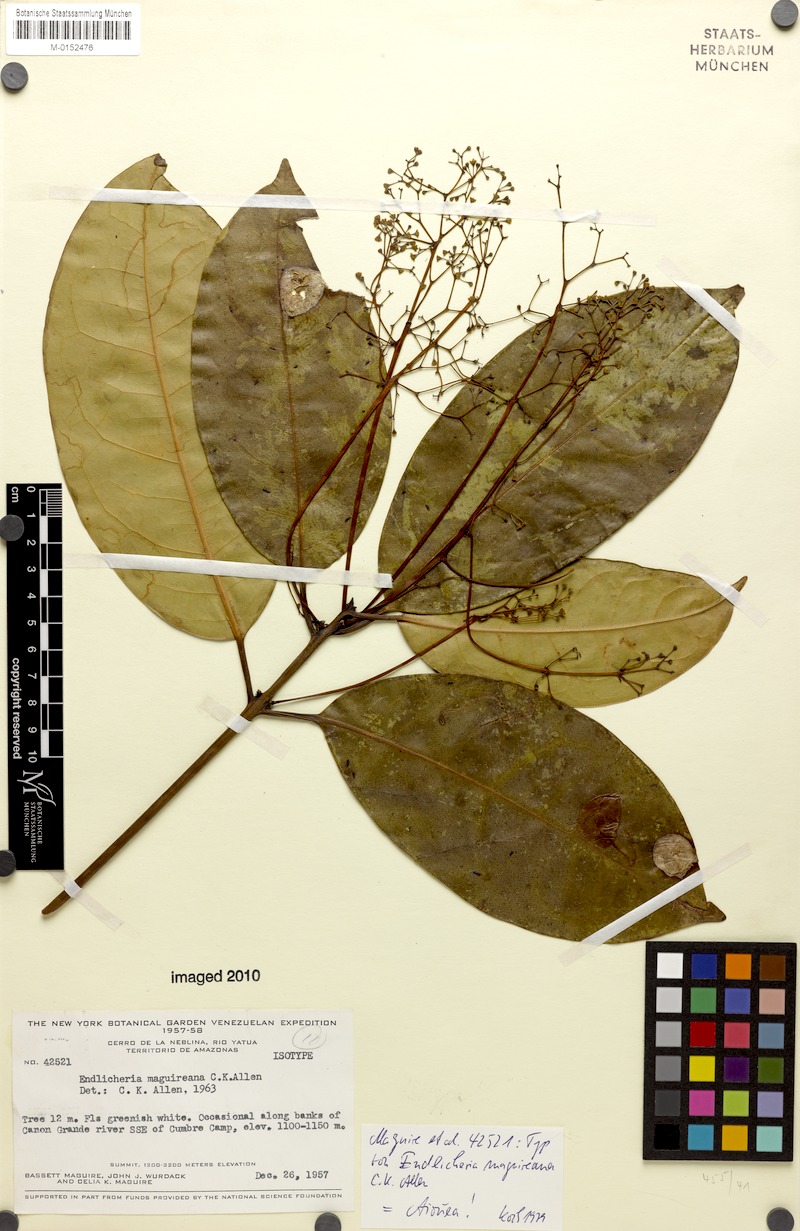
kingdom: Plantae
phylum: Tracheophyta
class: Magnoliopsida
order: Laurales
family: Lauraceae
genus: Aiouea
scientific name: Aiouea maguireana
